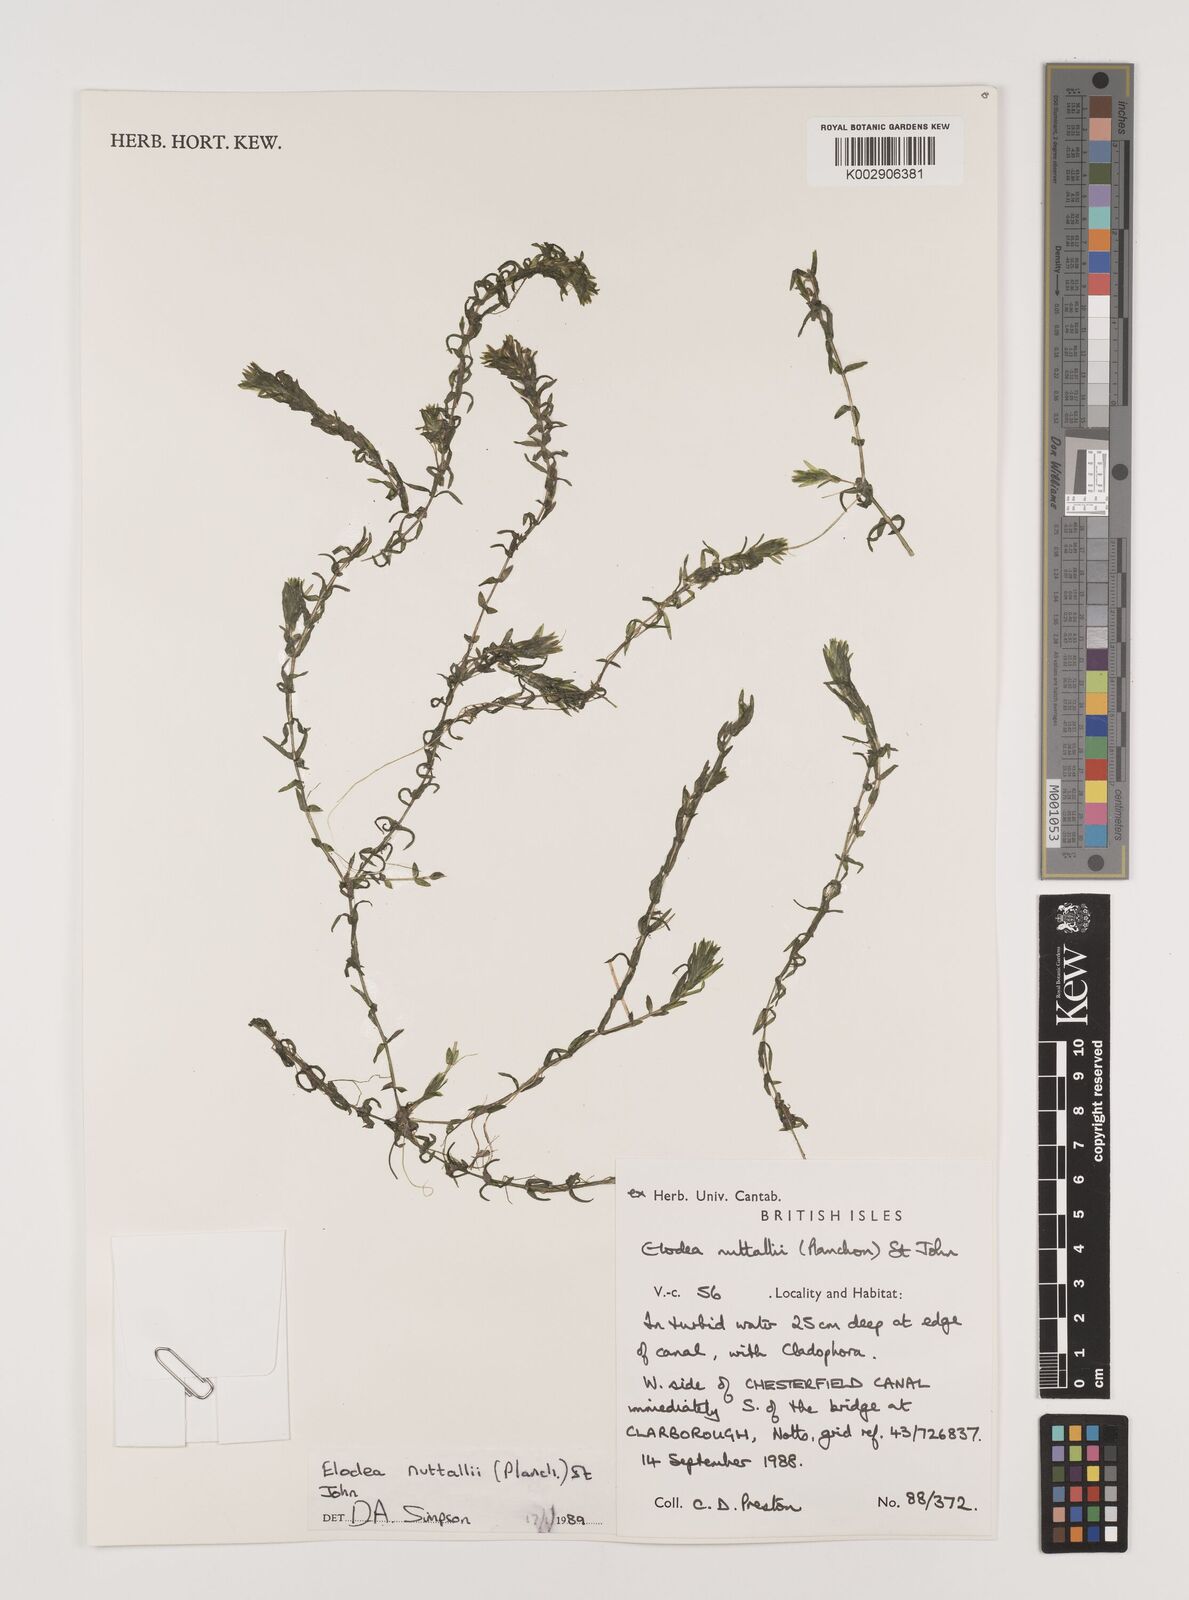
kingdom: Plantae
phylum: Tracheophyta
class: Liliopsida
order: Alismatales
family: Hydrocharitaceae
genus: Elodea
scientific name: Elodea nuttallii
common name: Nuttall's waterweed
